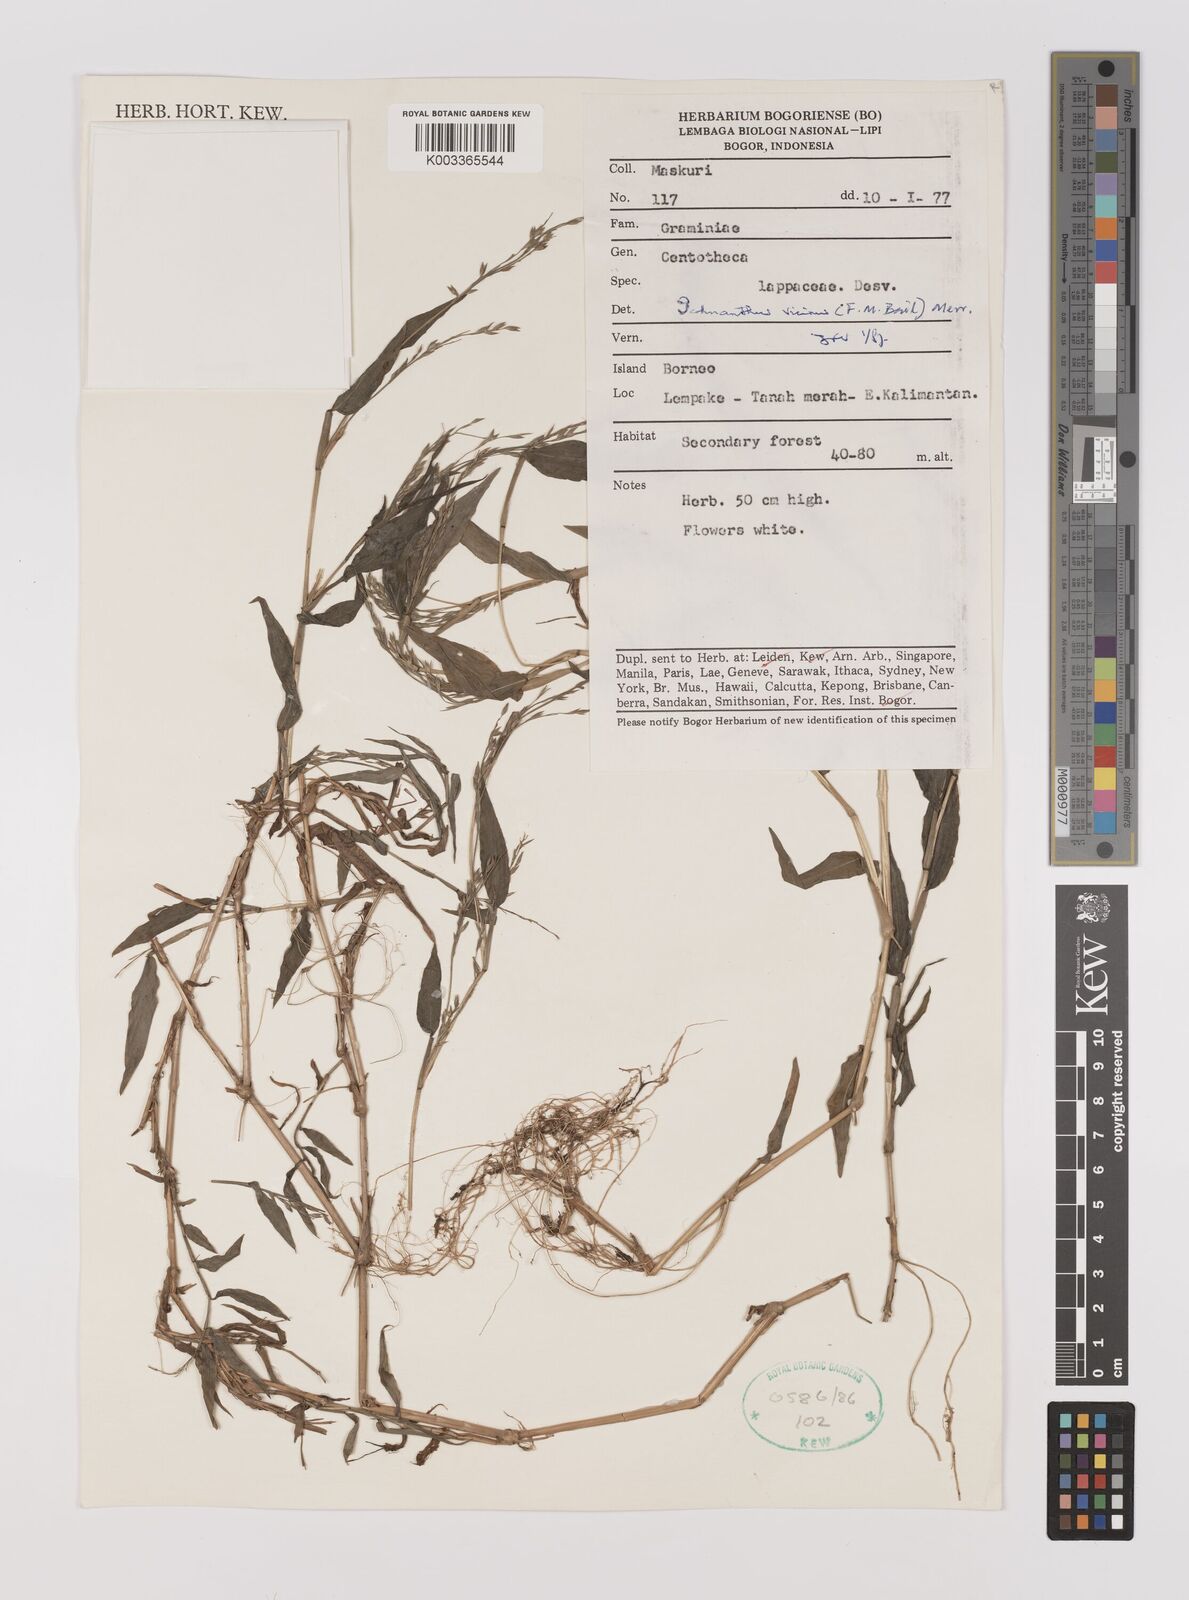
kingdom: Plantae
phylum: Tracheophyta
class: Liliopsida
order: Poales
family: Poaceae
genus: Ichnanthus
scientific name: Ichnanthus pallens
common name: Water grass
